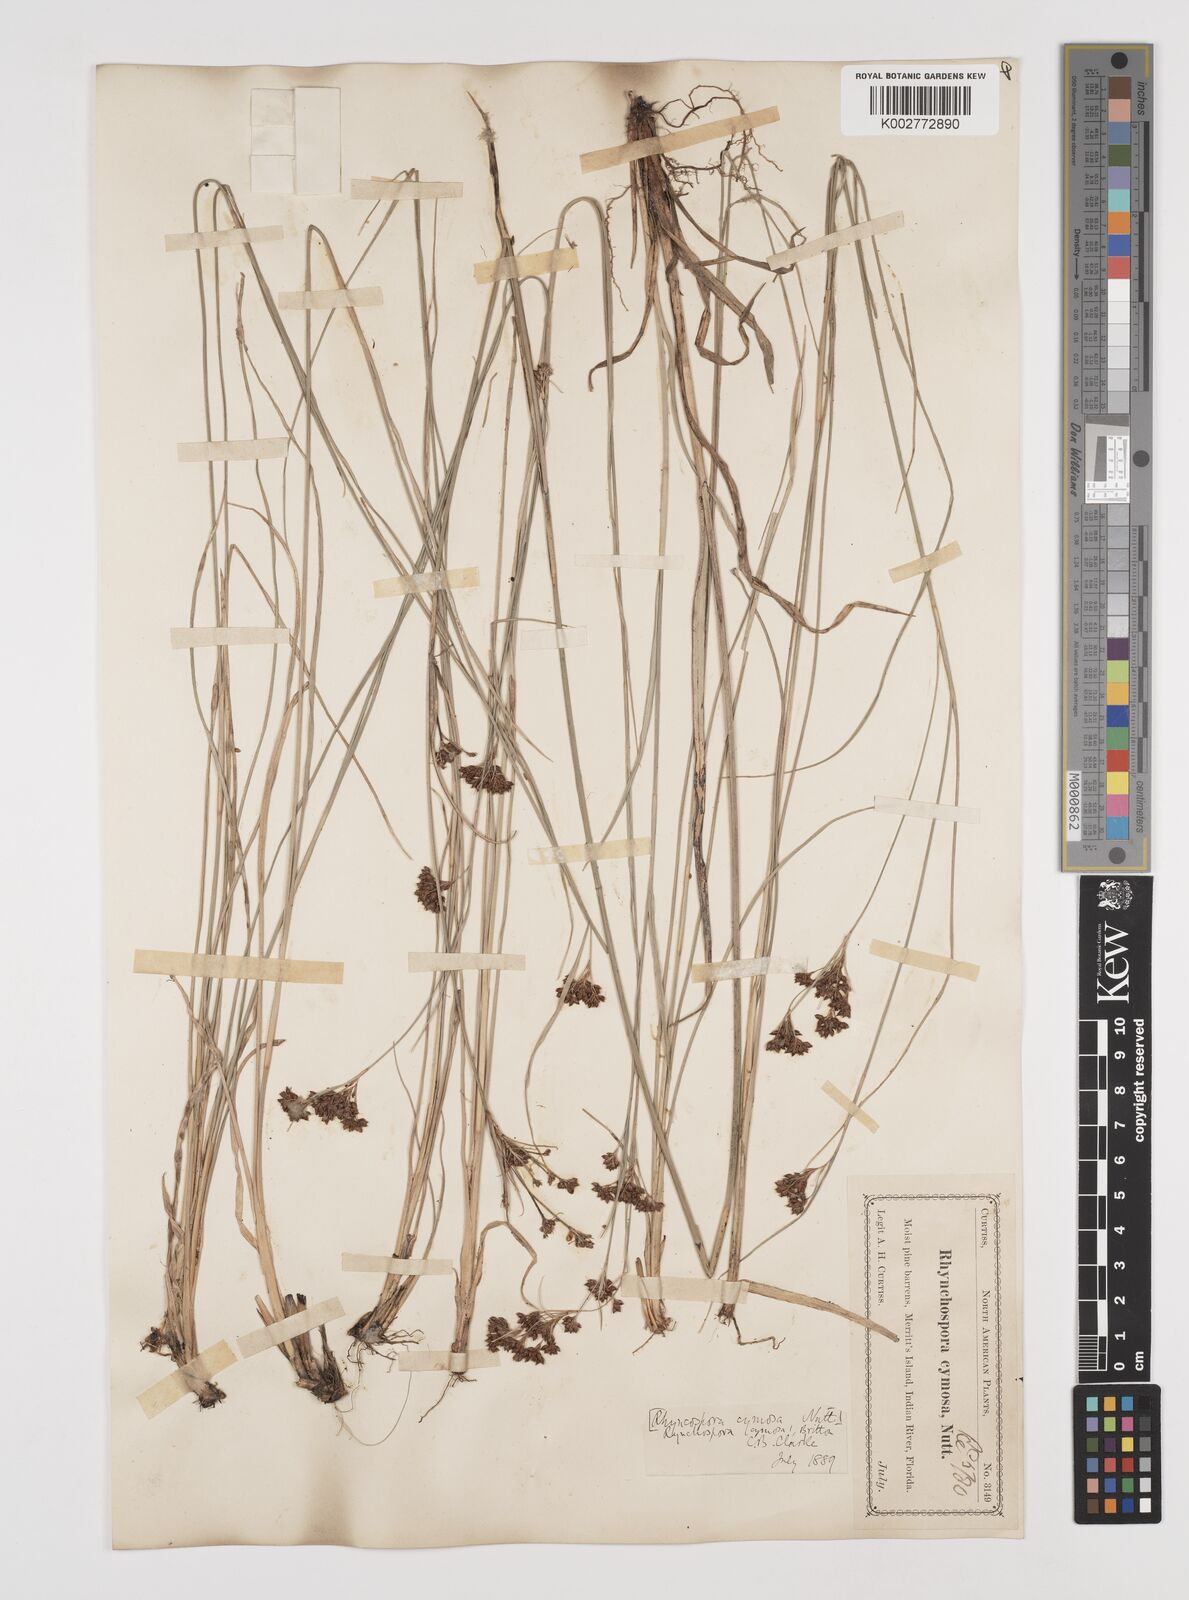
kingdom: Plantae
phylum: Tracheophyta
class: Liliopsida
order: Poales
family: Cyperaceae
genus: Scirpus
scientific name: Scirpus polyphyllus
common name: Leafy bulrush
